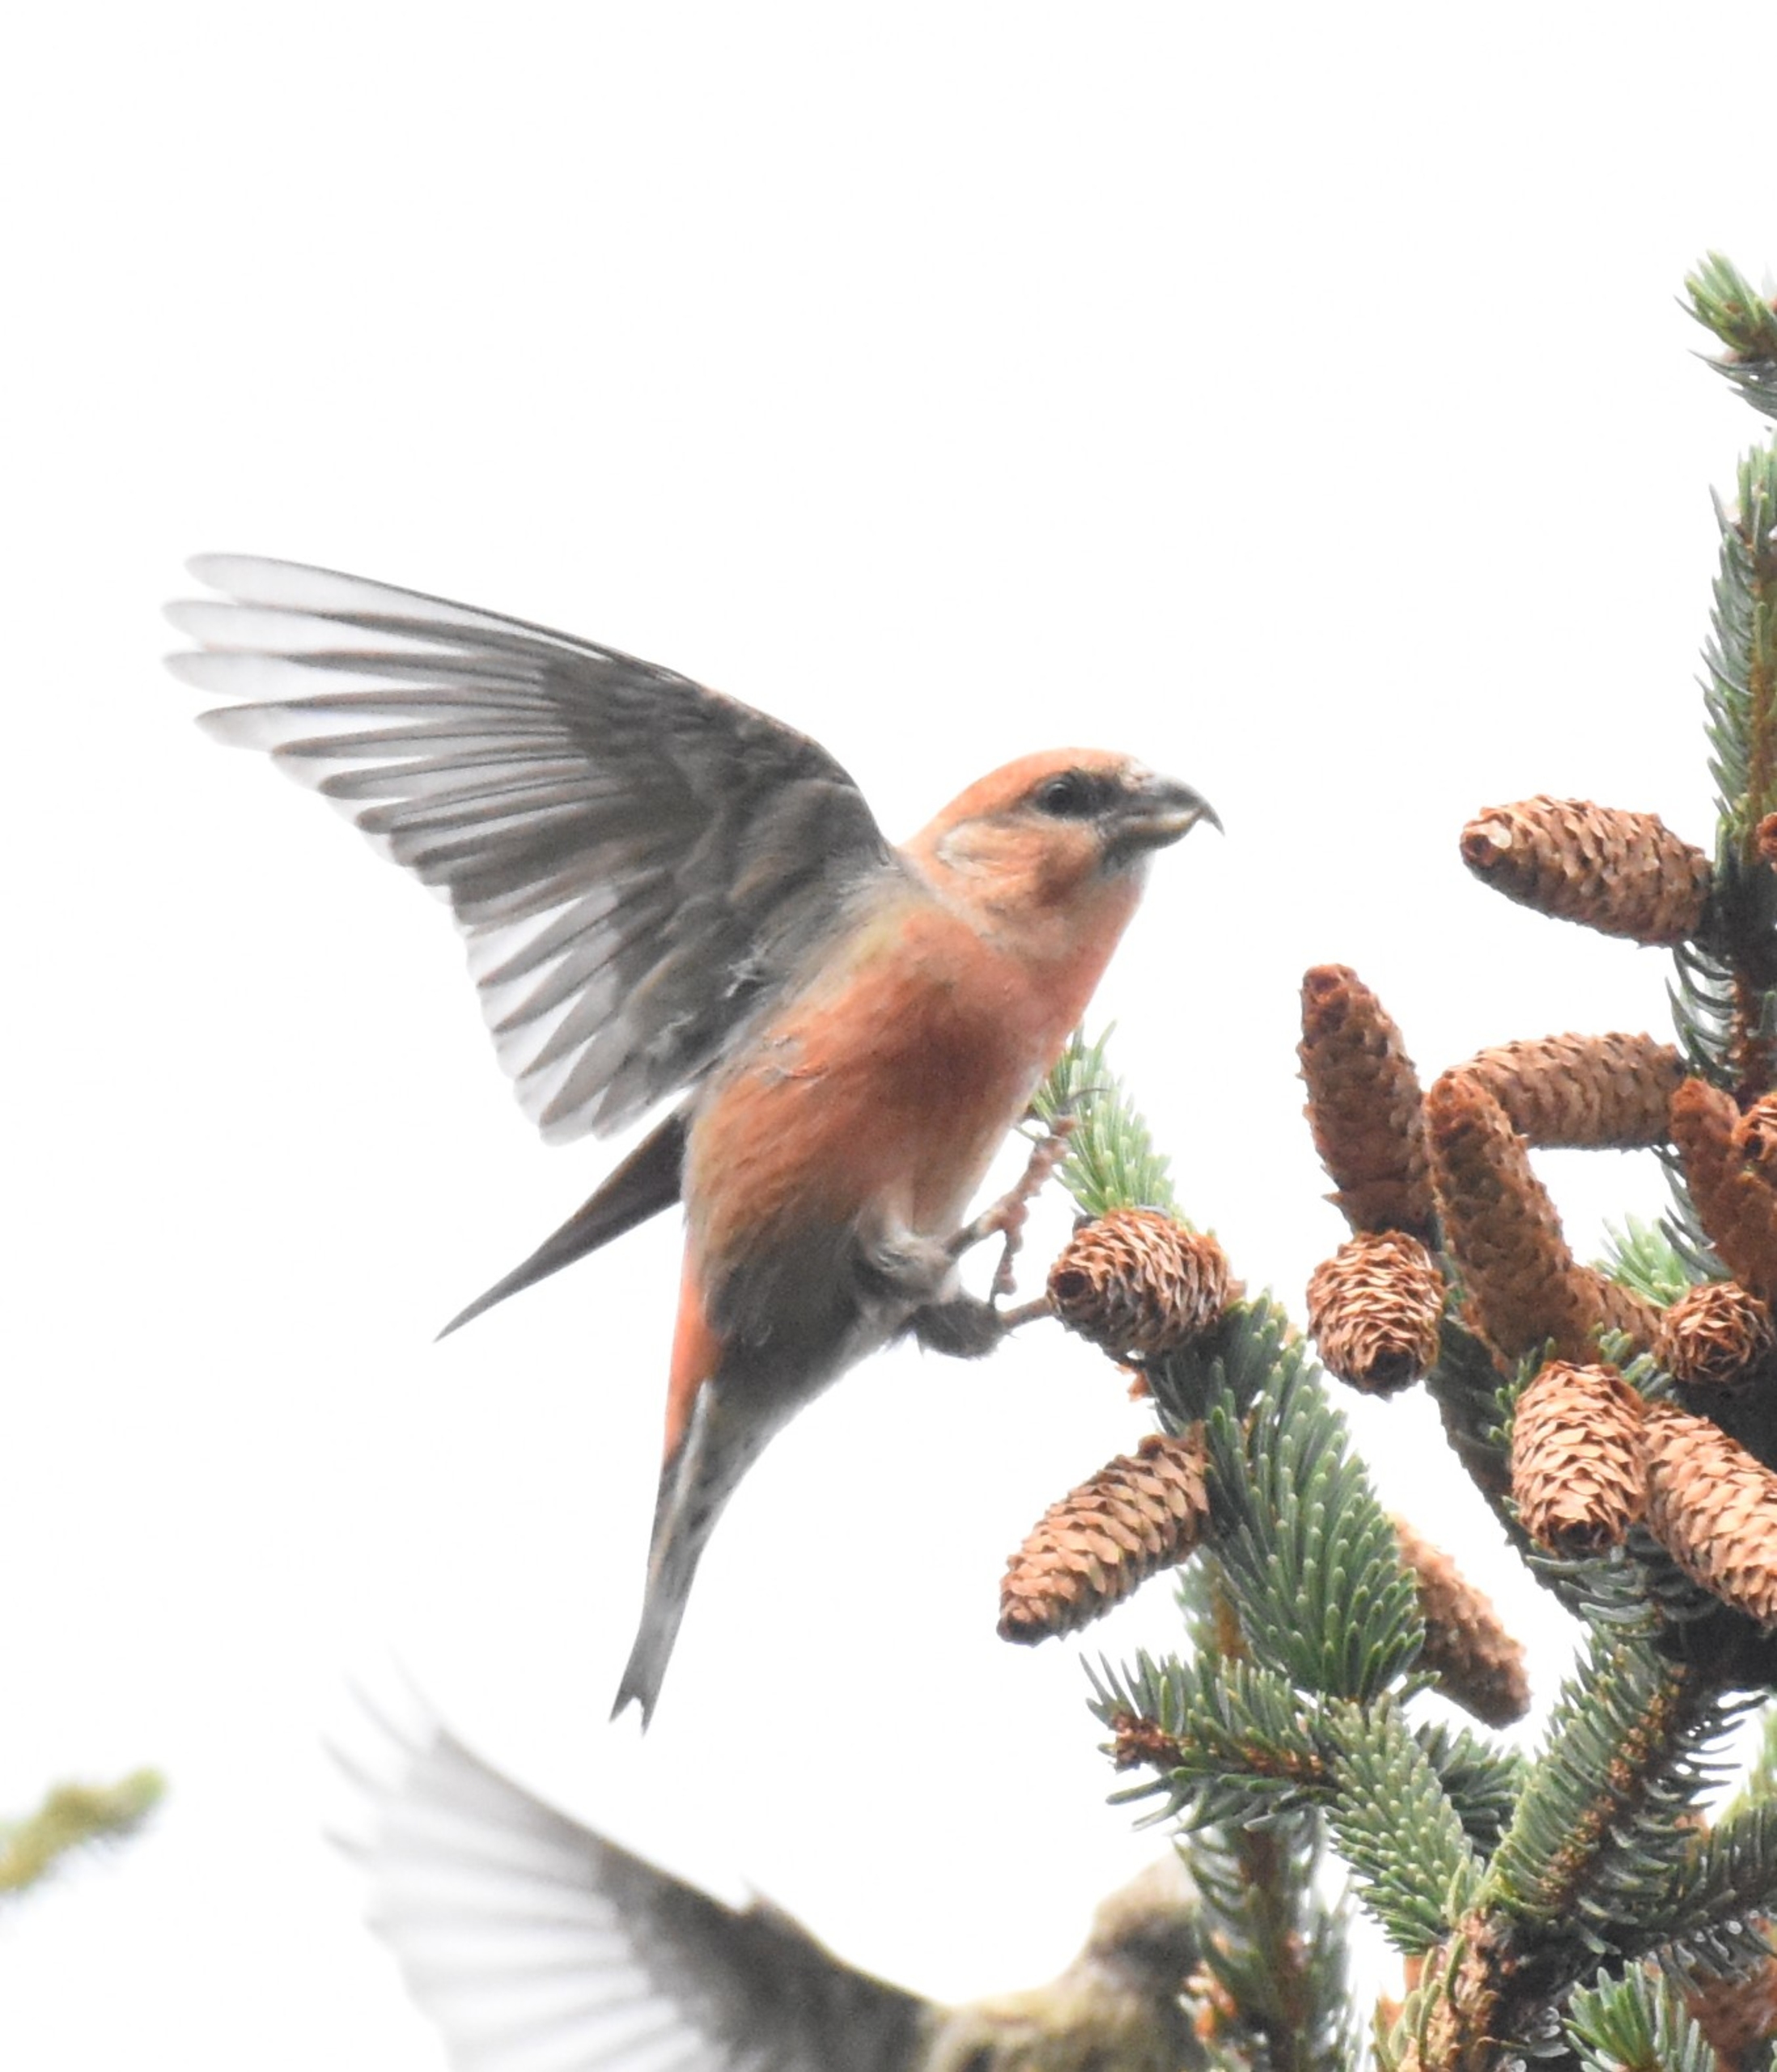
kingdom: Animalia
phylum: Chordata
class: Aves
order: Passeriformes
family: Fringillidae
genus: Loxia
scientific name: Loxia curvirostra
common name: Lille korsnæb
